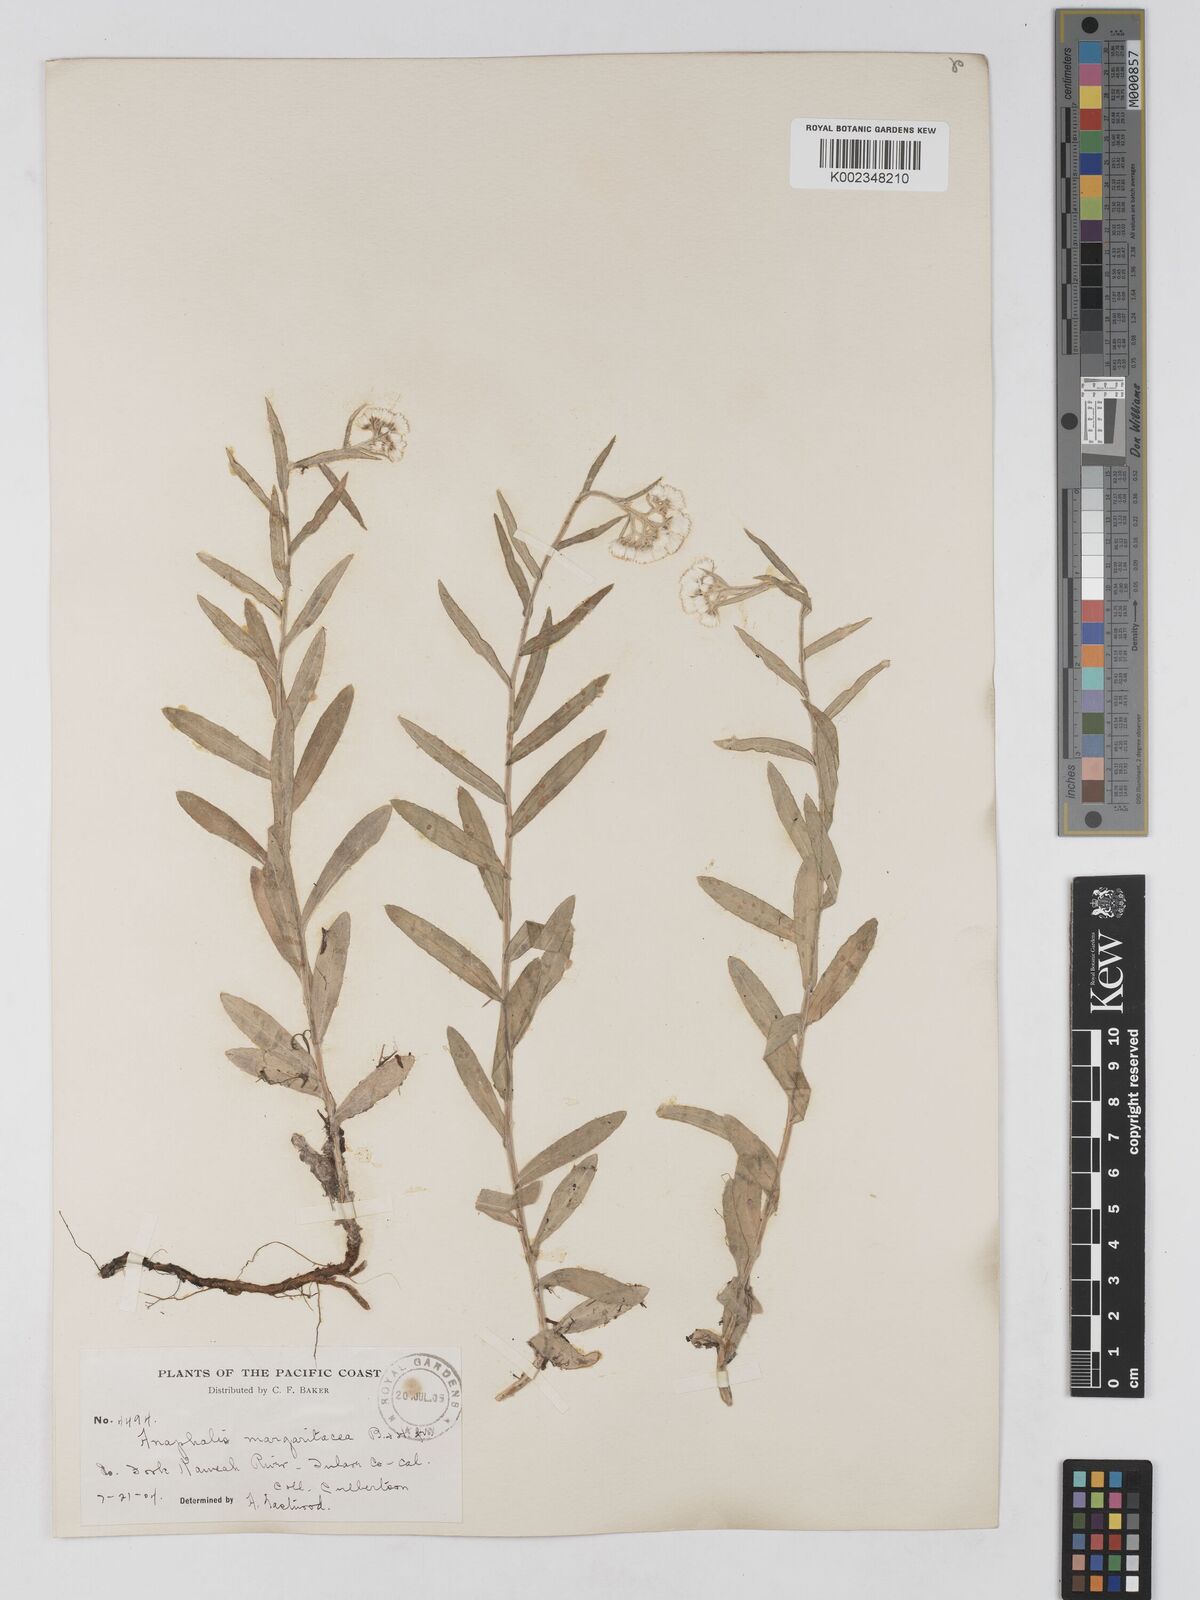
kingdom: Plantae
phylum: Tracheophyta
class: Magnoliopsida
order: Asterales
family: Asteraceae
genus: Anaphalis
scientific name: Anaphalis margaritacea
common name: Pearly everlasting
